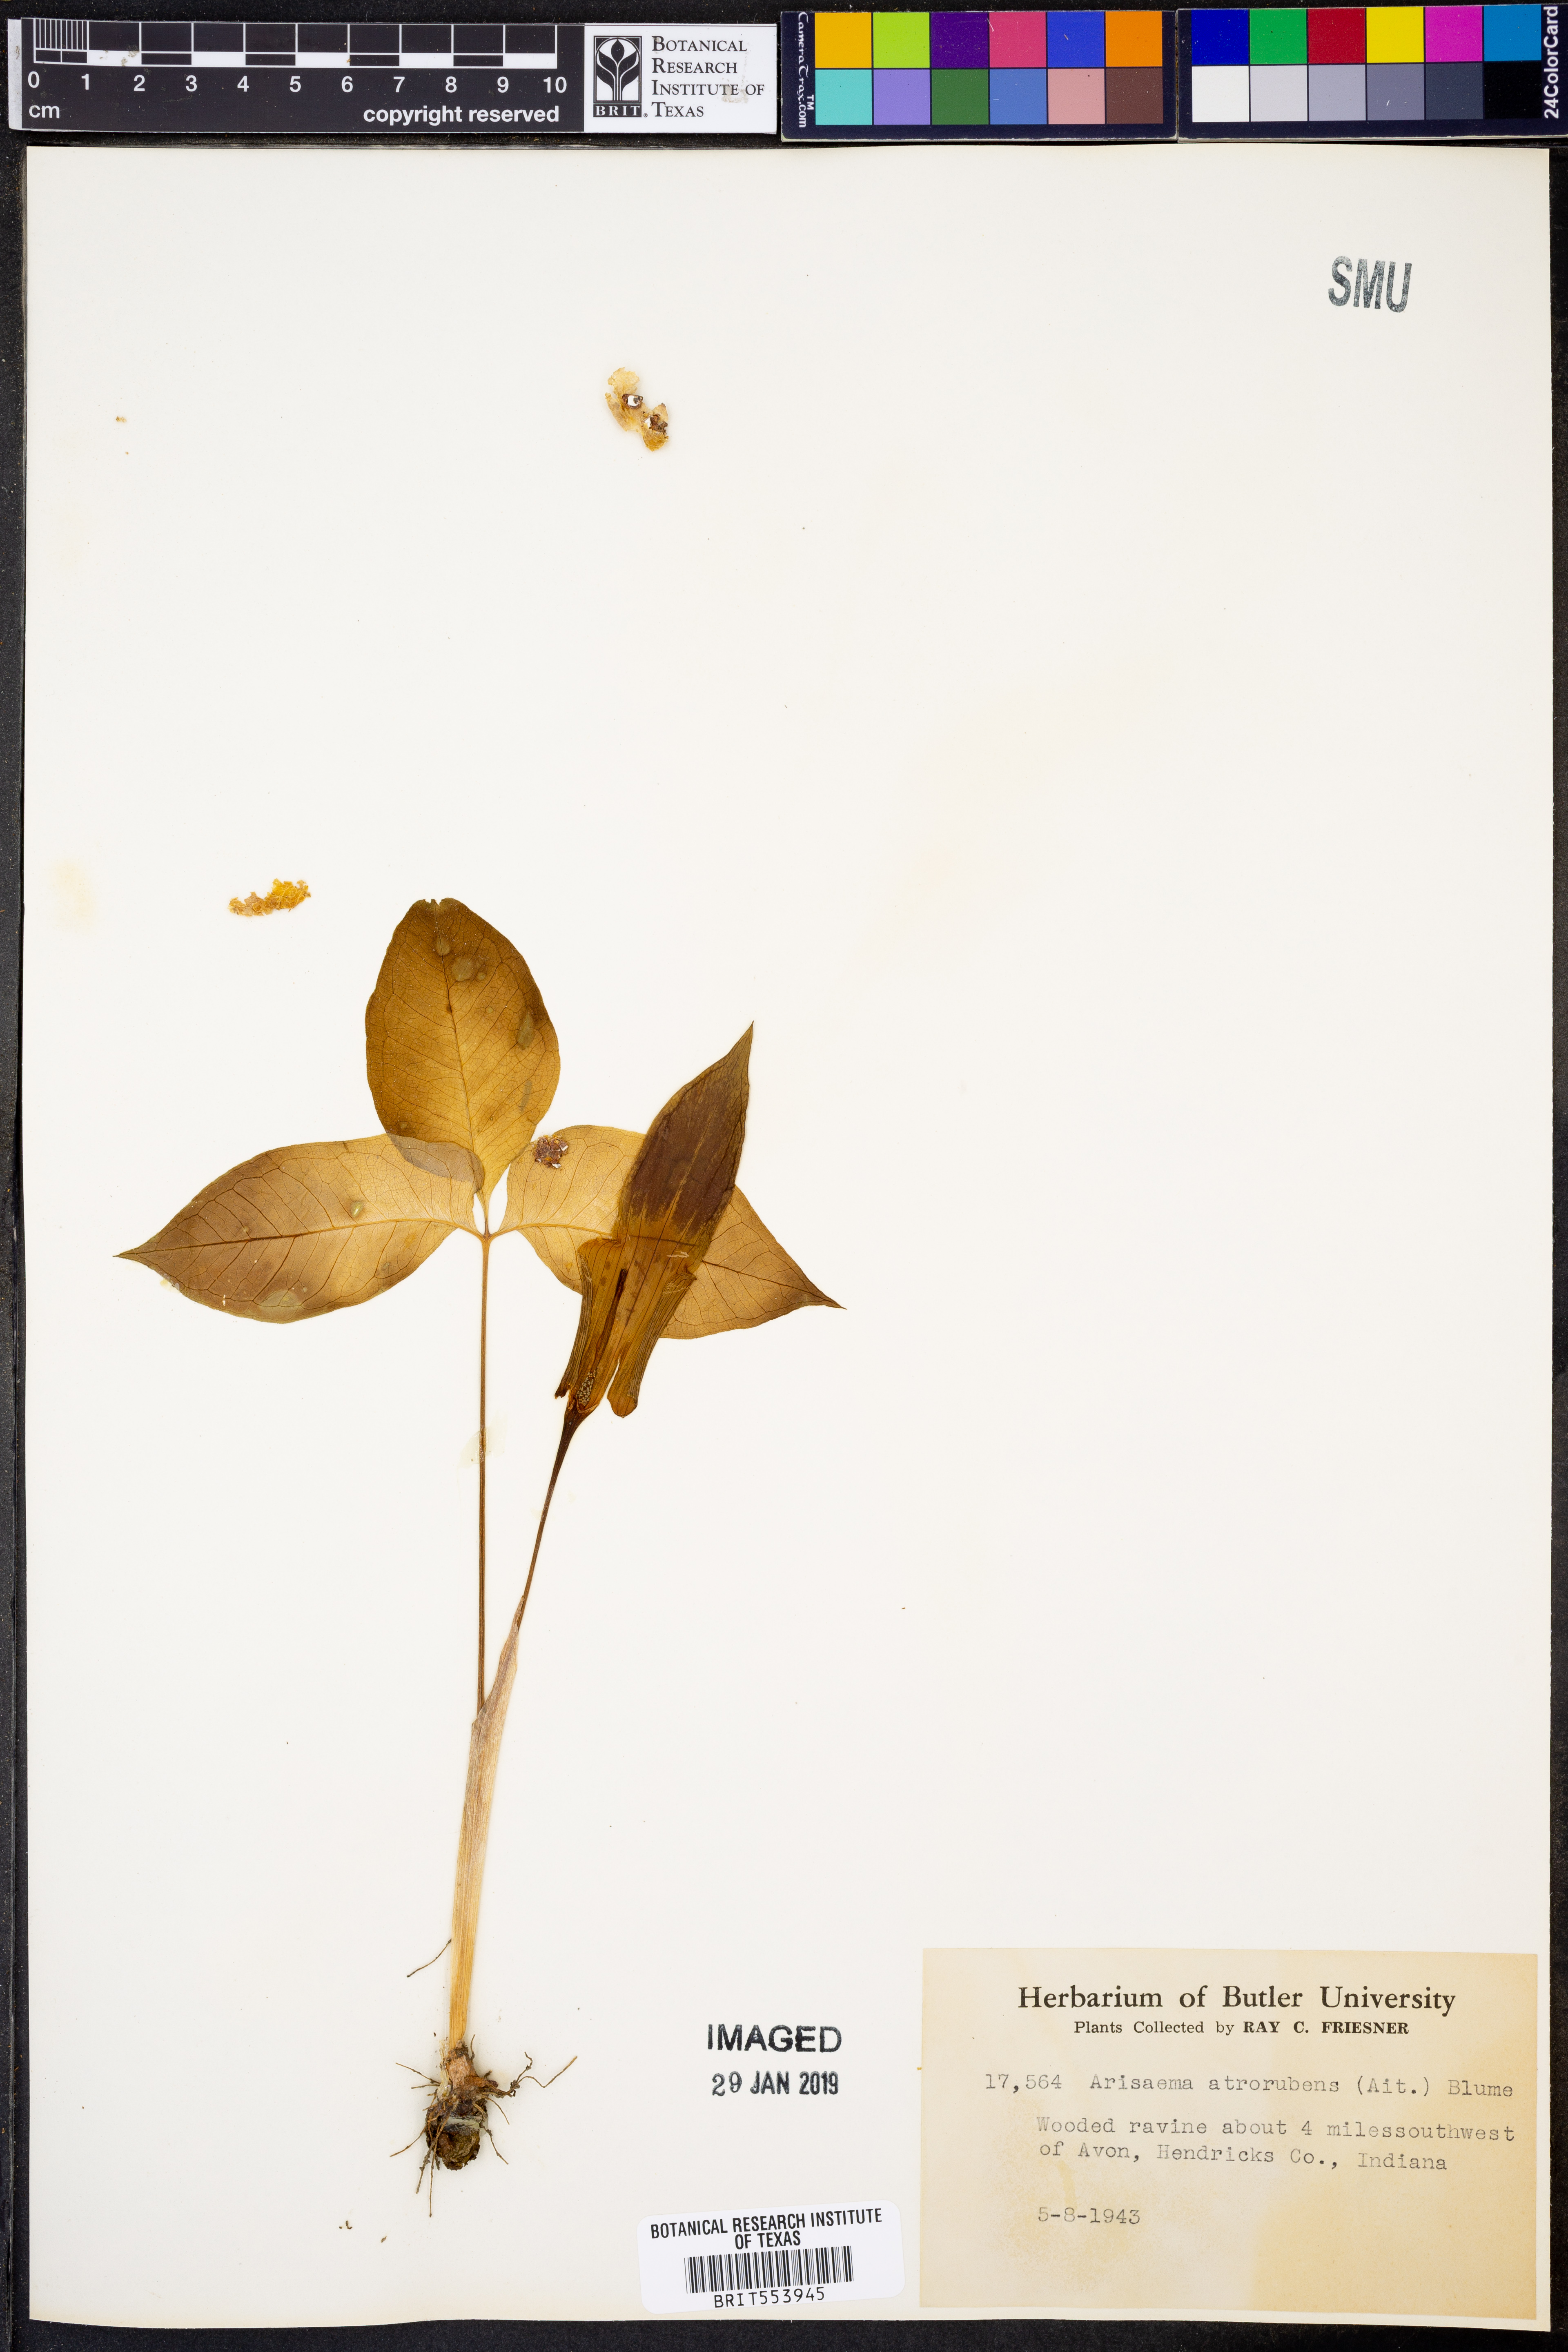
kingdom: Plantae
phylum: Tracheophyta
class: Liliopsida
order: Alismatales
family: Araceae
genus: Arisaema
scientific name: Arisaema triphyllum
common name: Jack-in-the-pulpit
